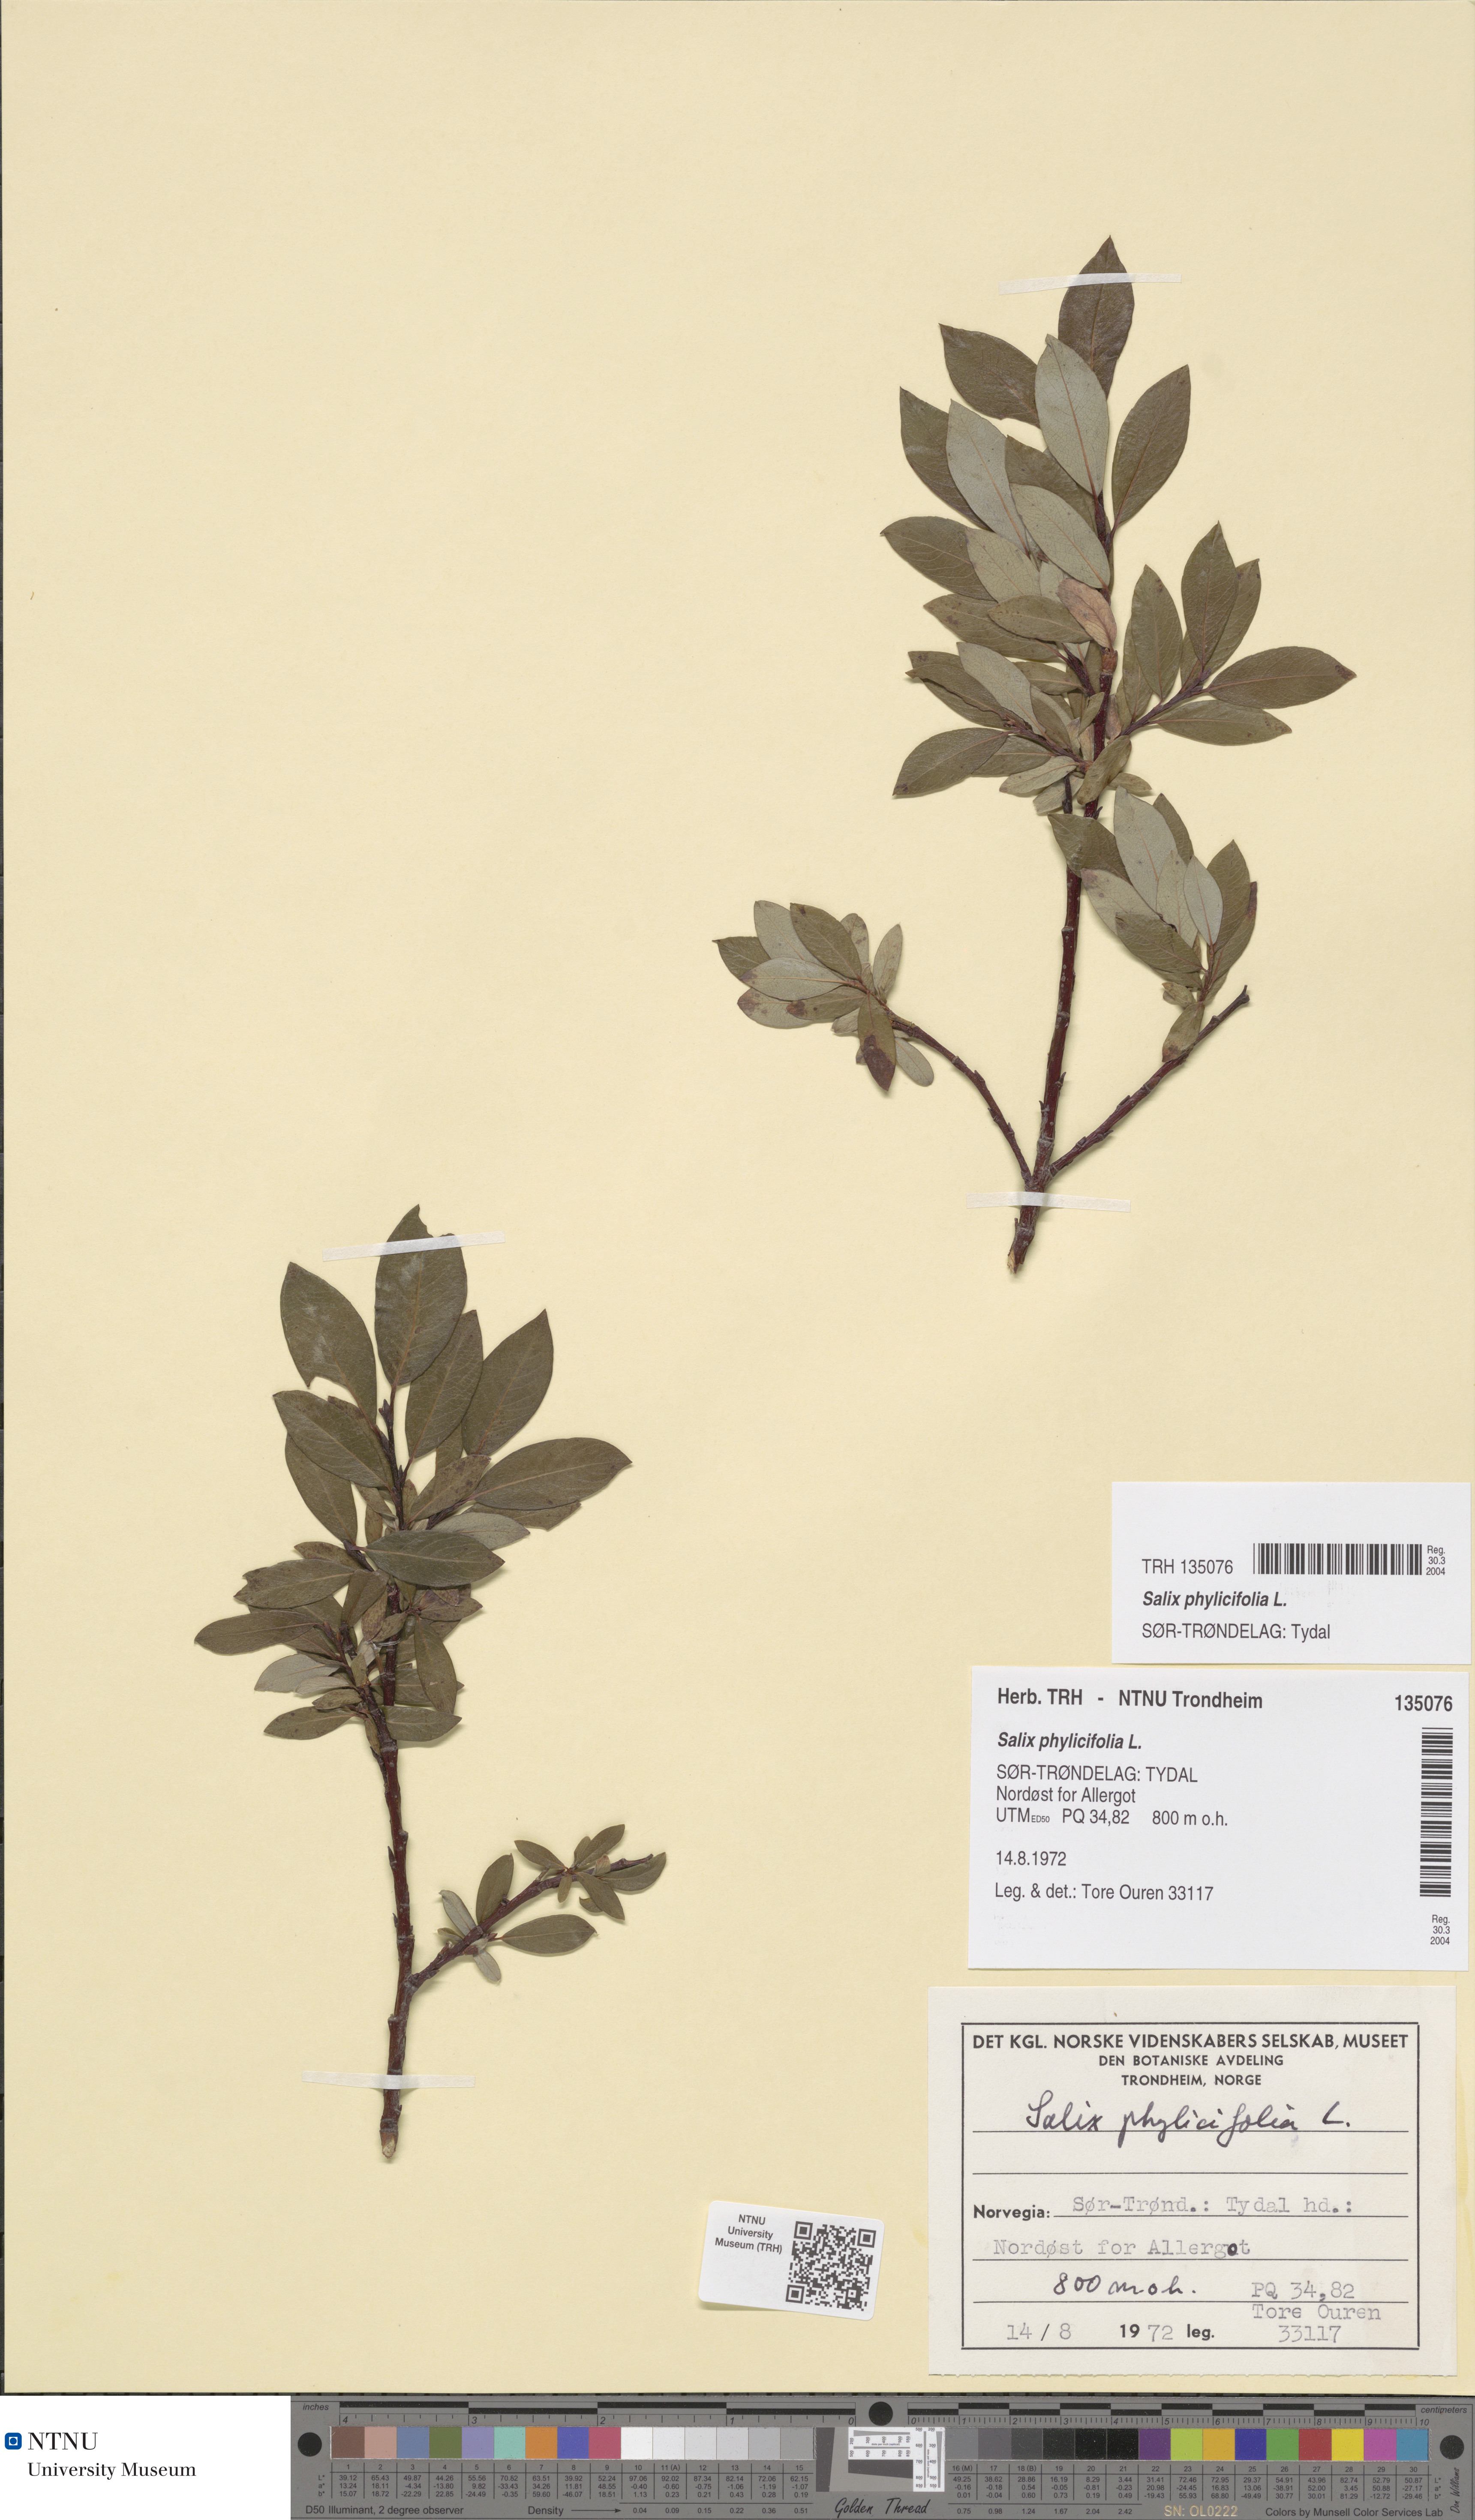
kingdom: Plantae
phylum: Tracheophyta
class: Magnoliopsida
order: Malpighiales
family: Salicaceae
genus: Salix
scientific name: Salix phylicifolia
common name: Tea-leaved willow
